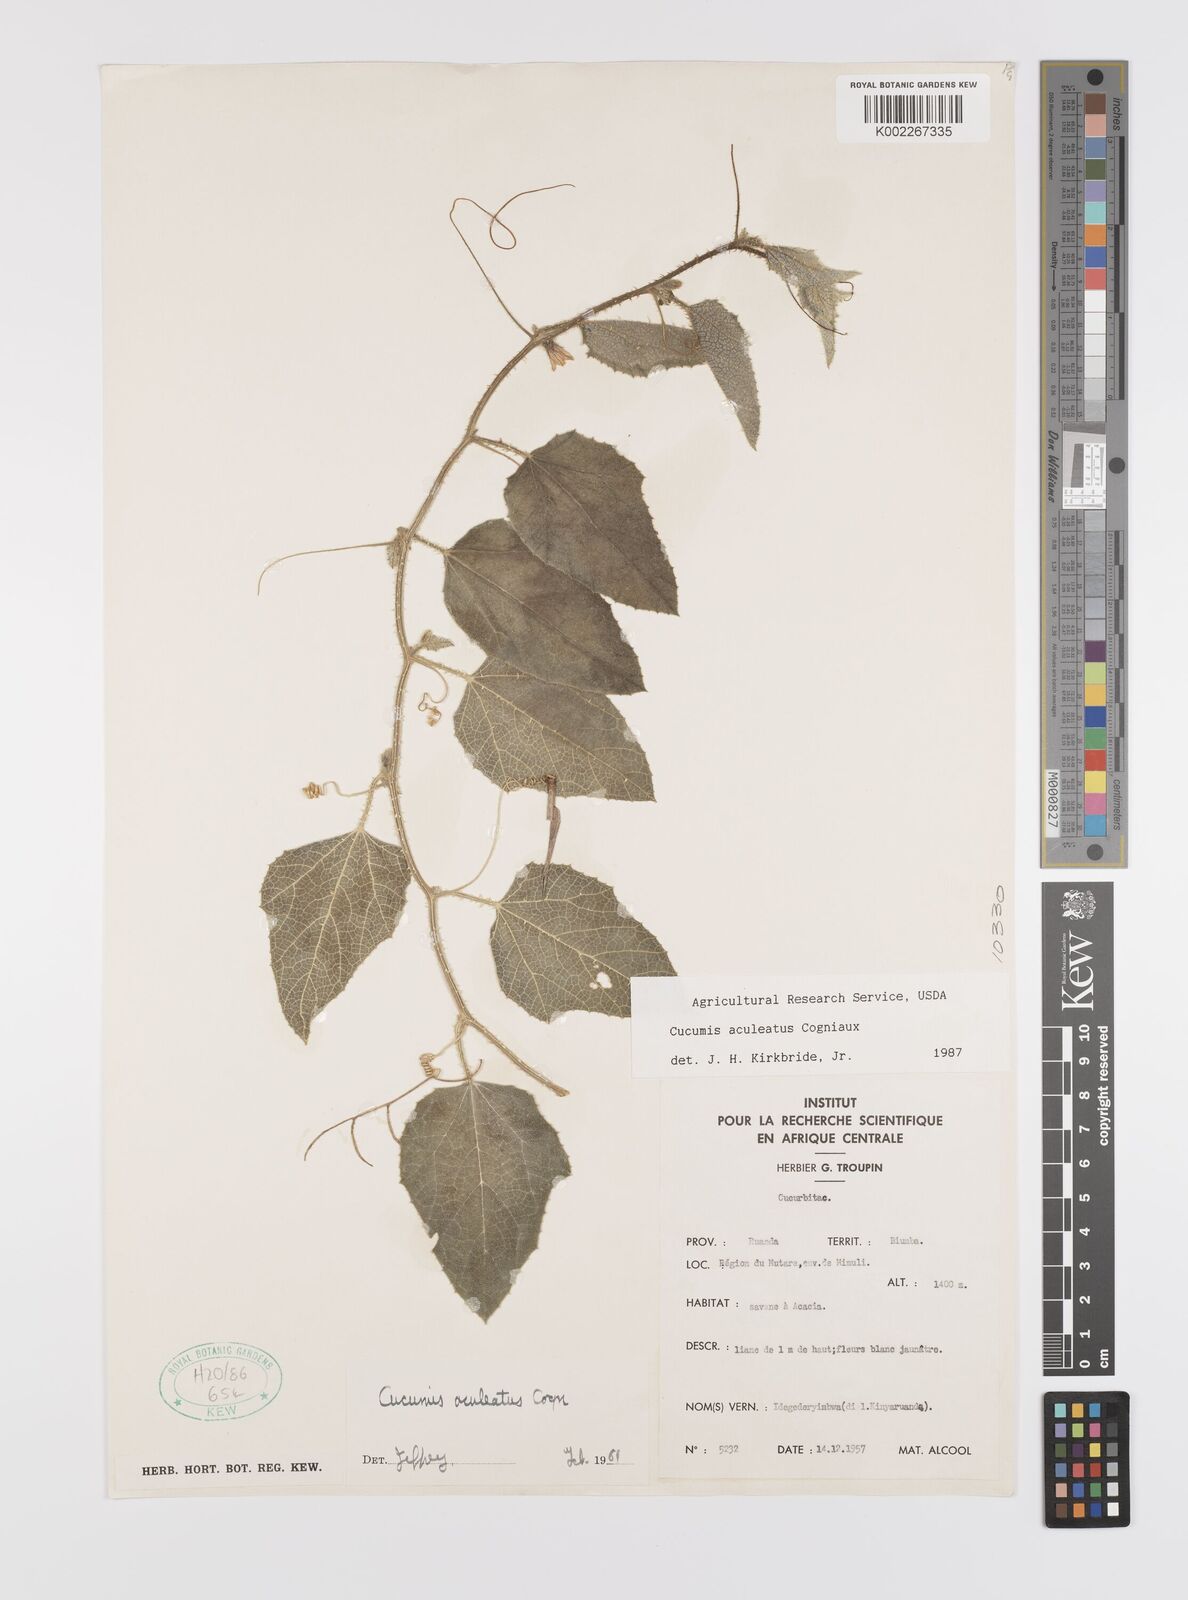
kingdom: Plantae
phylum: Tracheophyta
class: Magnoliopsida
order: Cucurbitales
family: Cucurbitaceae
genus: Cucumis
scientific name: Cucumis aculeatus
